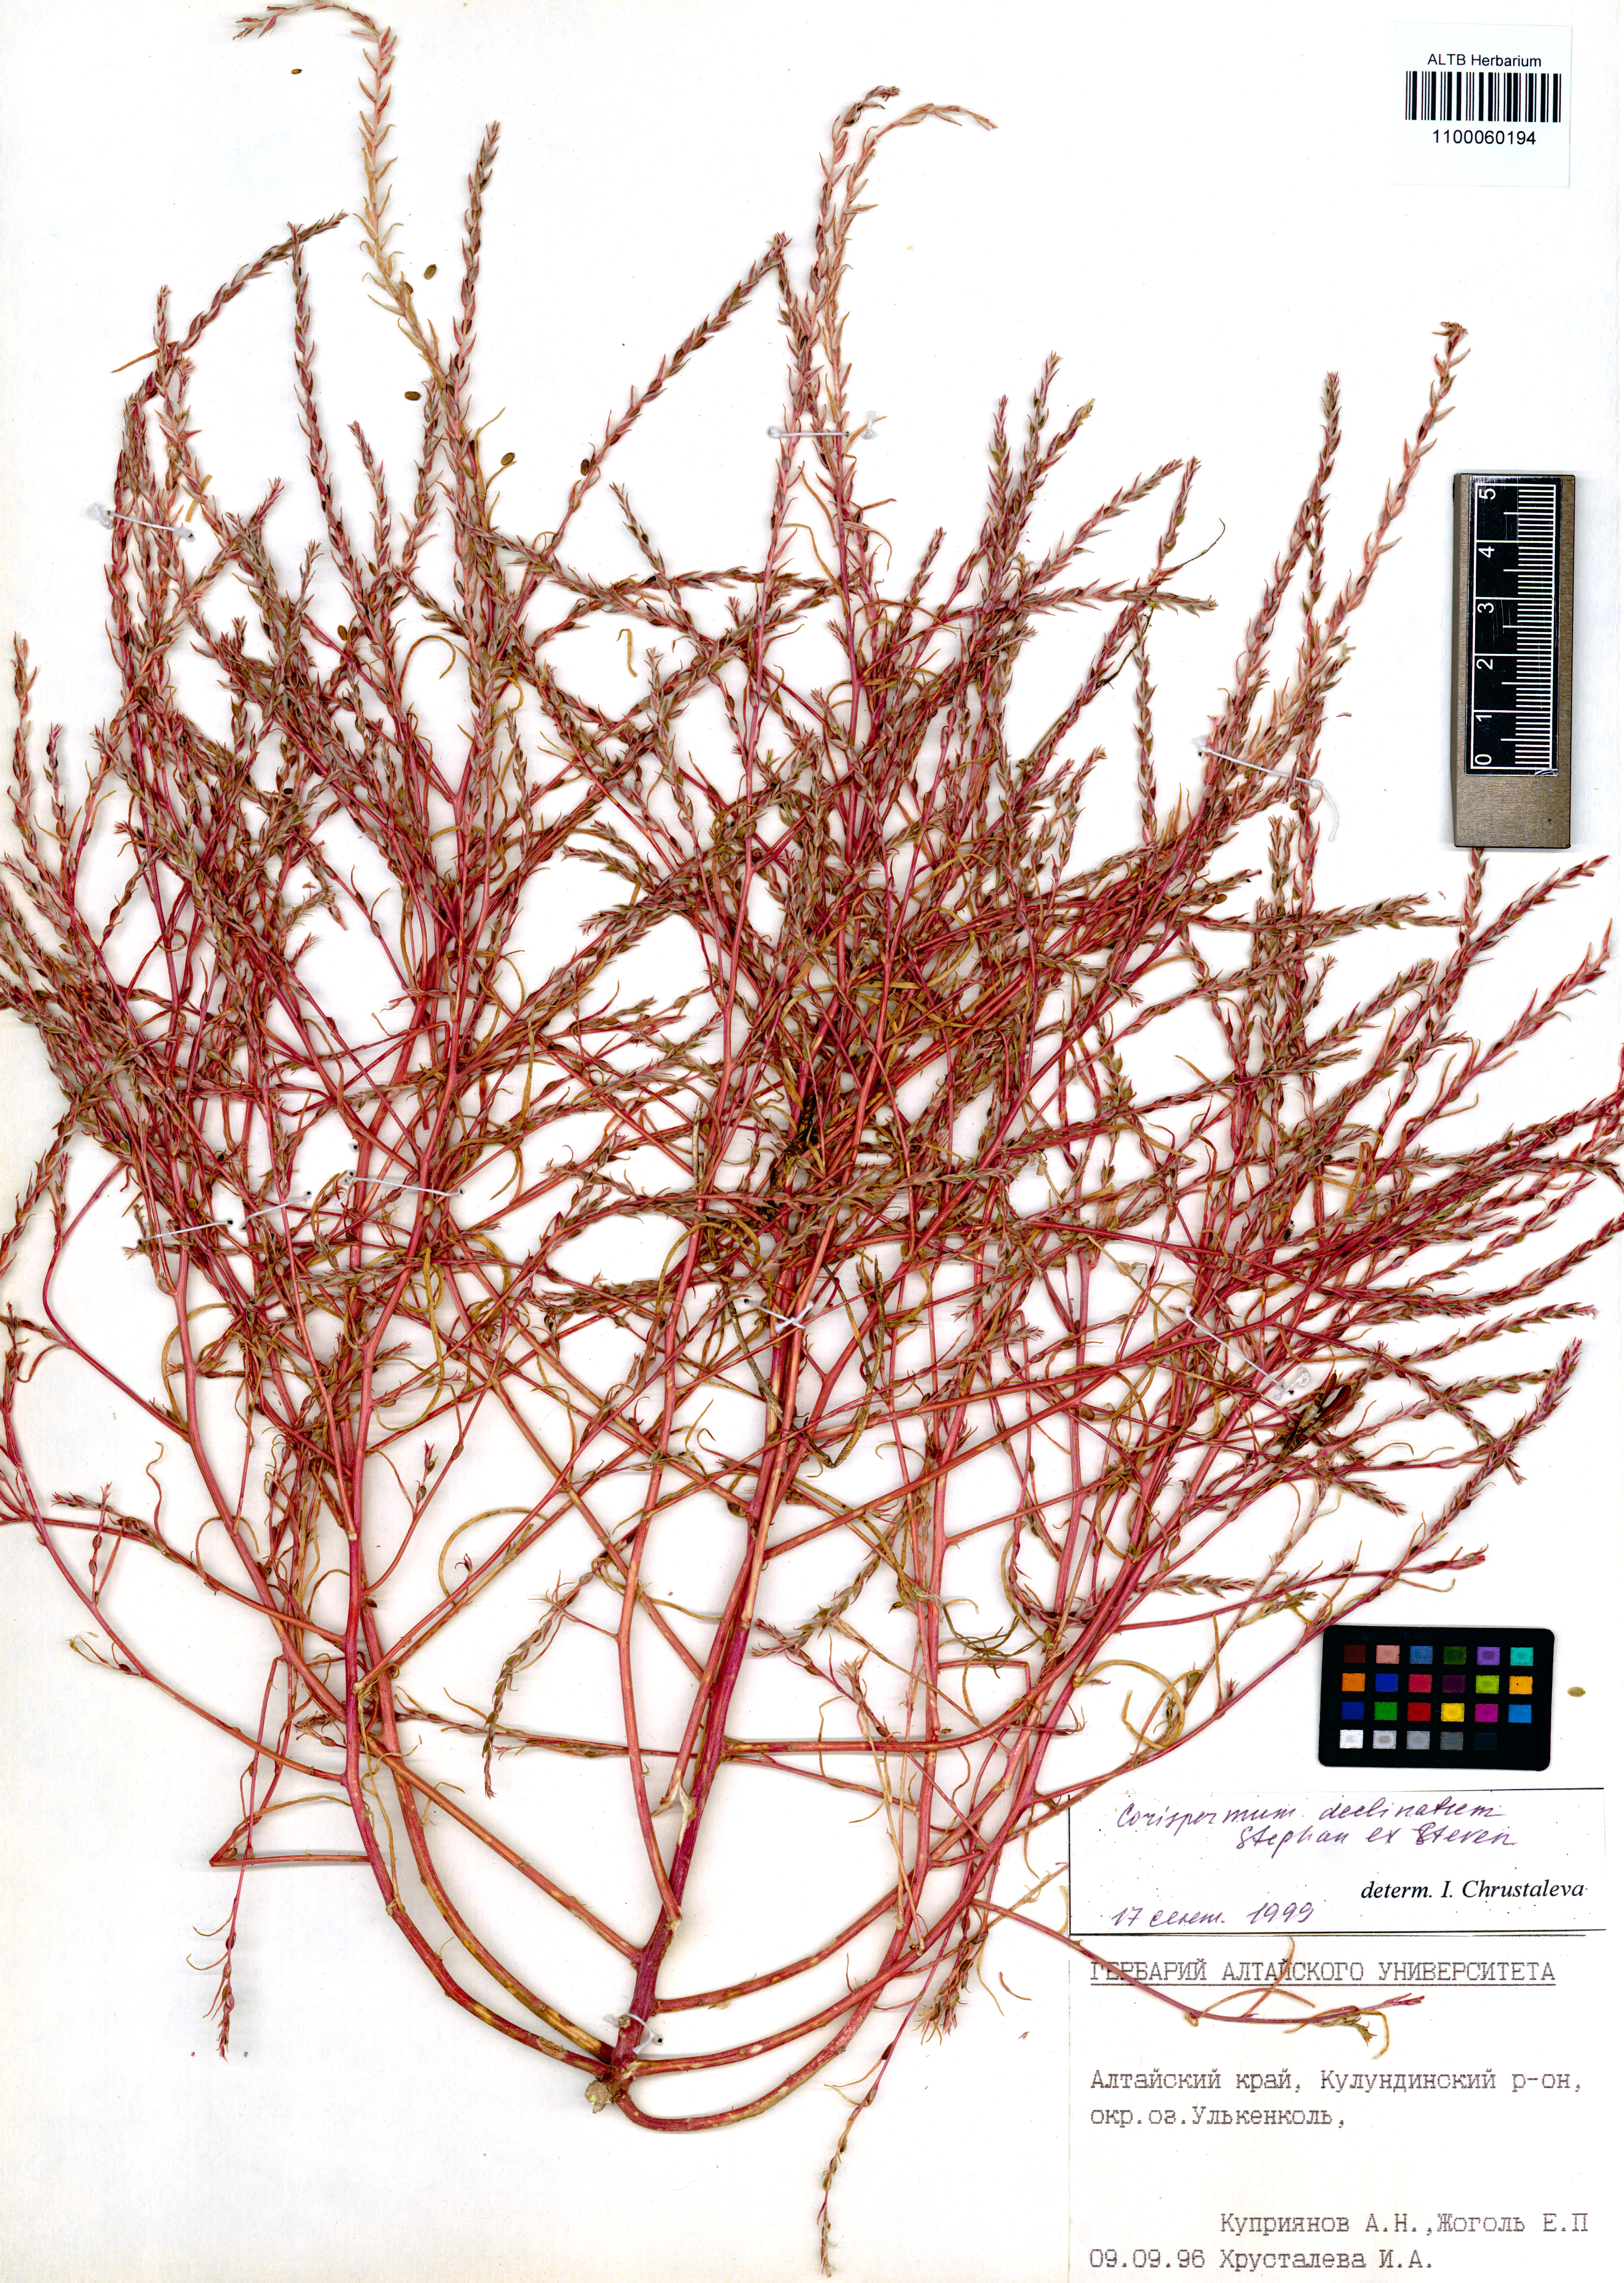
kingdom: Plantae
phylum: Tracheophyta
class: Magnoliopsida
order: Caryophyllales
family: Amaranthaceae
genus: Corispermum
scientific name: Corispermum declinatum
